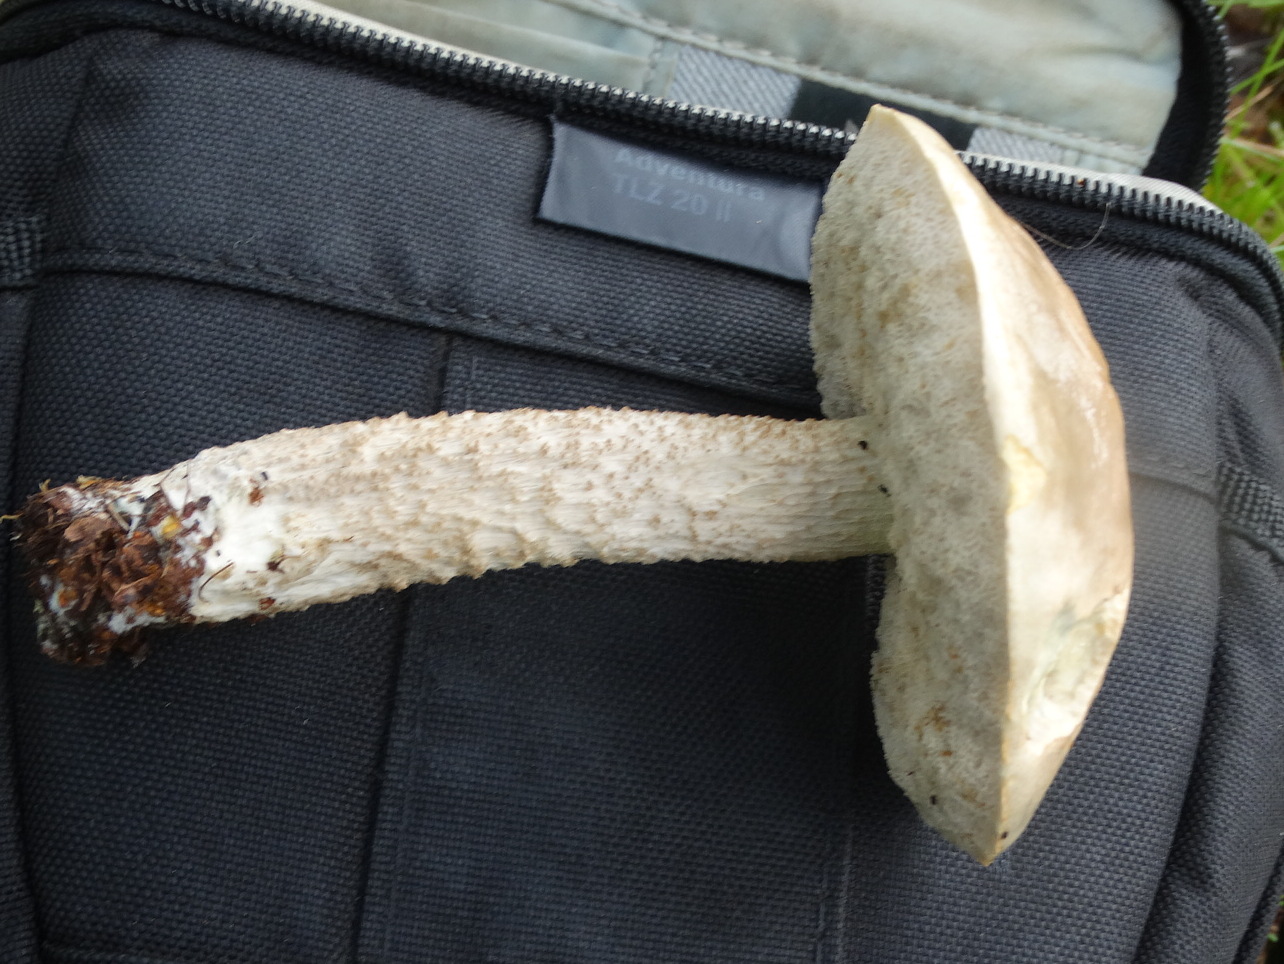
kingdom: Fungi
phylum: Basidiomycota
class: Agaricomycetes
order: Boletales
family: Boletaceae
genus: Leccinum
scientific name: Leccinum
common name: skælrørhat
